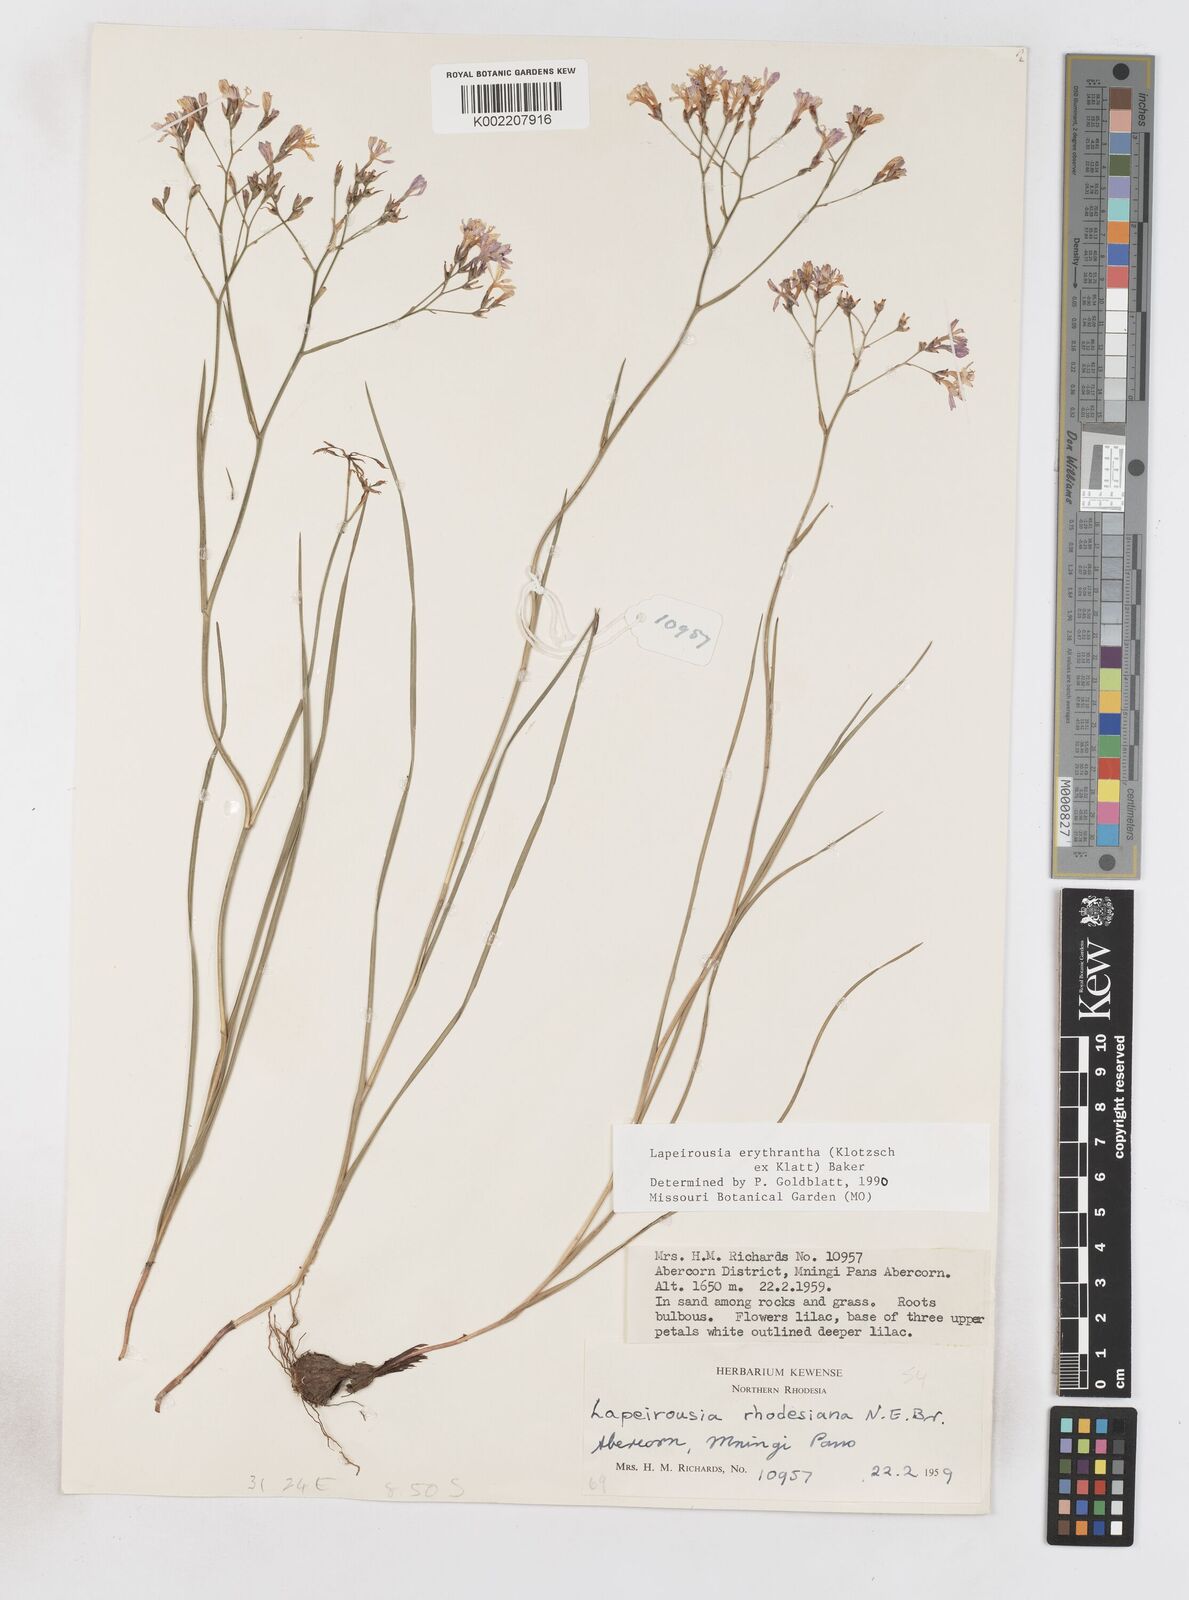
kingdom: Plantae
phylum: Tracheophyta
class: Liliopsida
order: Asparagales
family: Iridaceae
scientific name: Iridaceae
